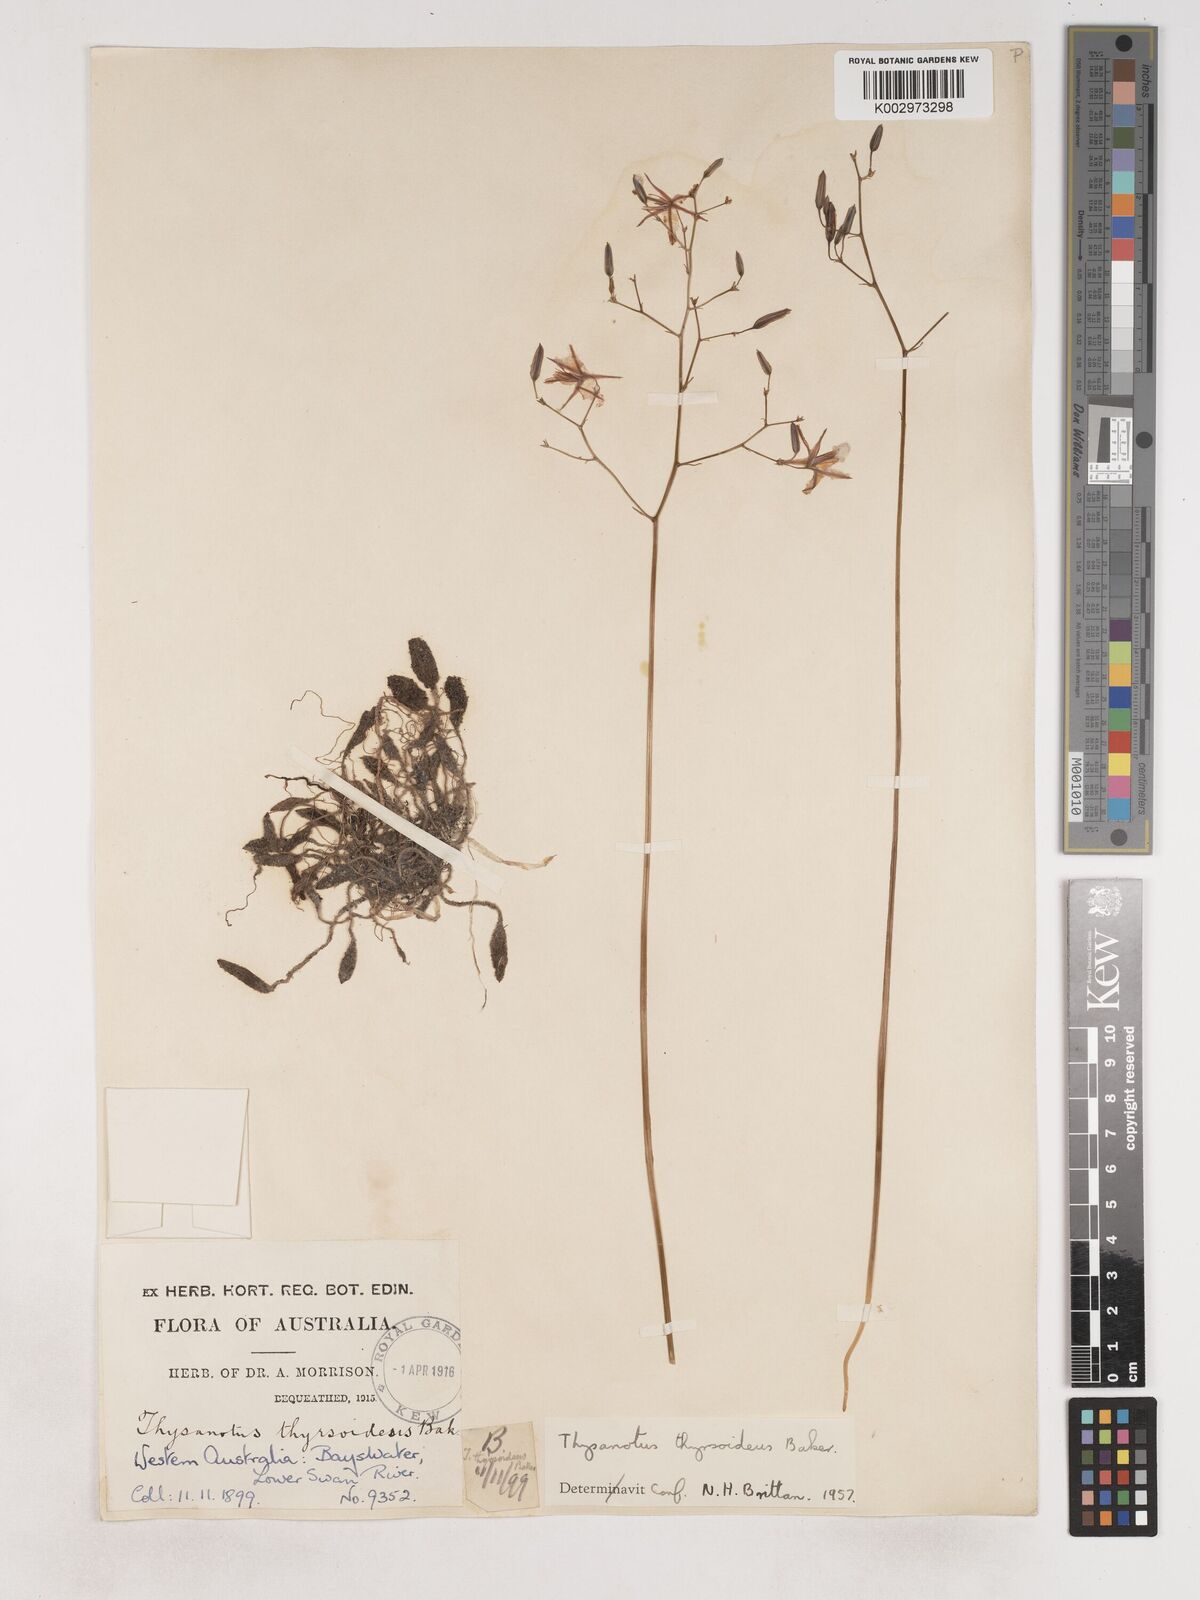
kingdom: Plantae
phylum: Tracheophyta
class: Liliopsida
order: Asparagales
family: Asparagaceae
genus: Thysanotus
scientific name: Thysanotus thyrsoideus
